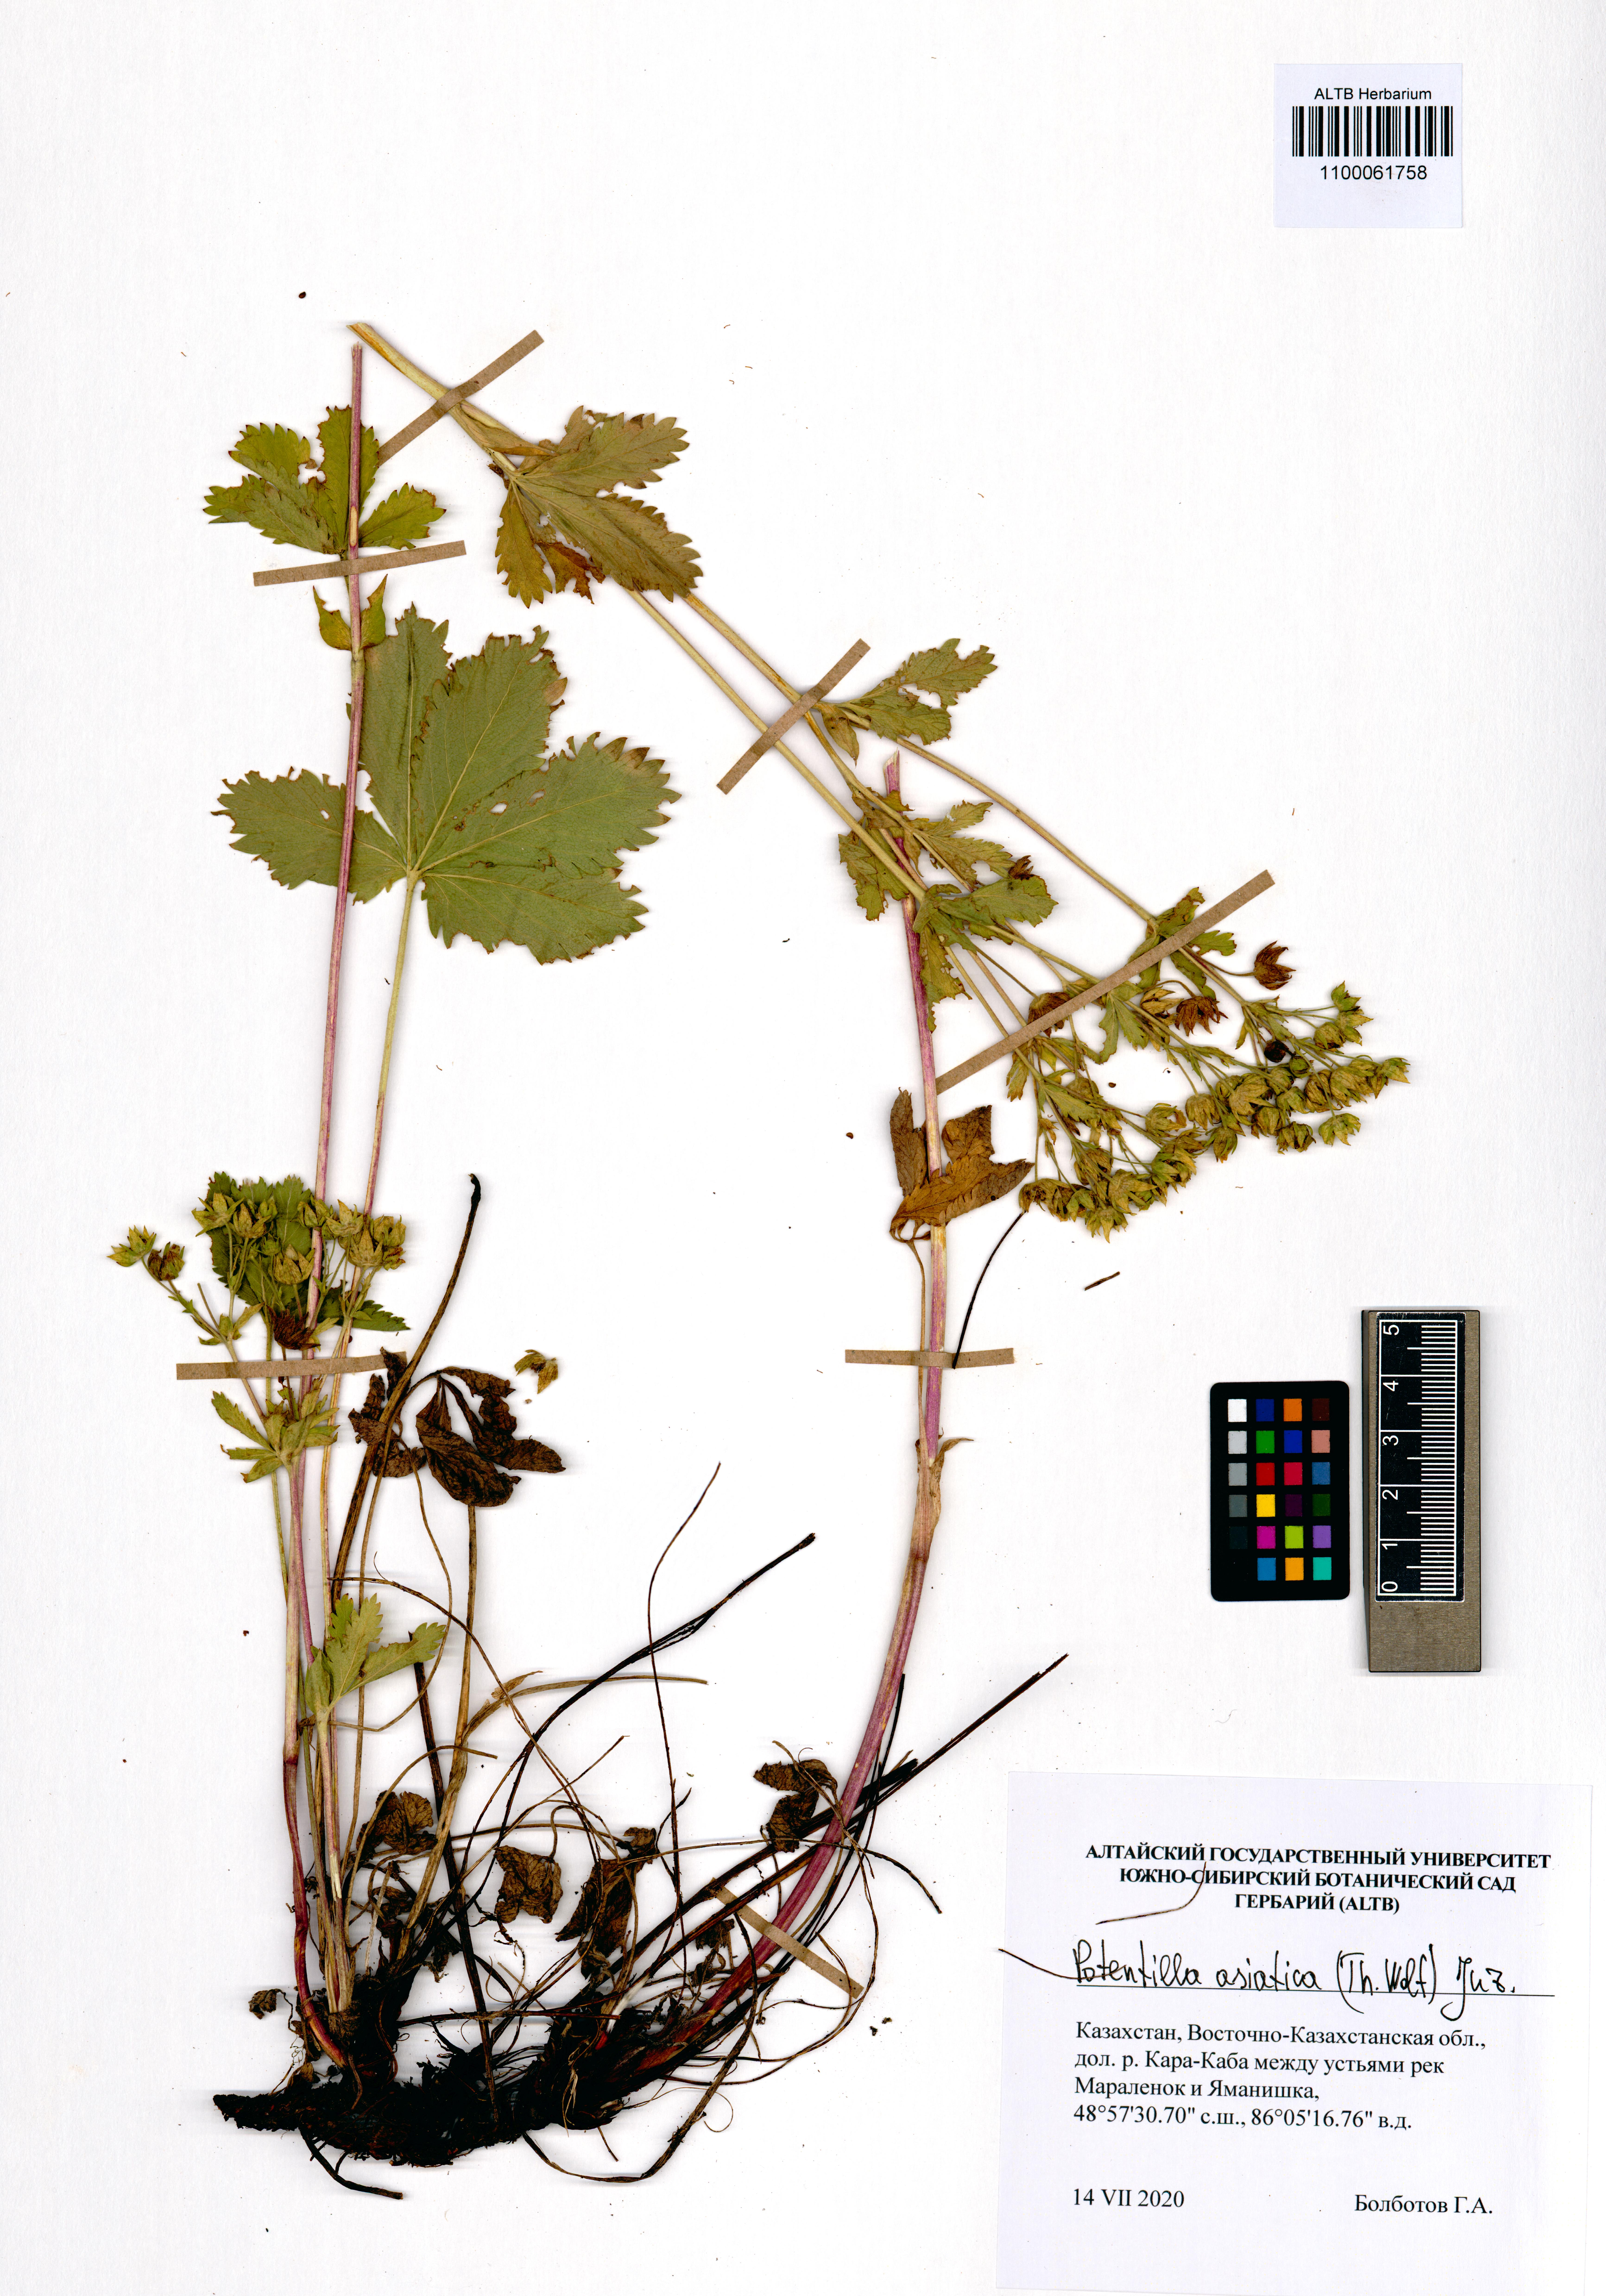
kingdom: Plantae
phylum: Tracheophyta
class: Magnoliopsida
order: Rosales
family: Rosaceae
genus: Potentilla
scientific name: Potentilla asiatica
